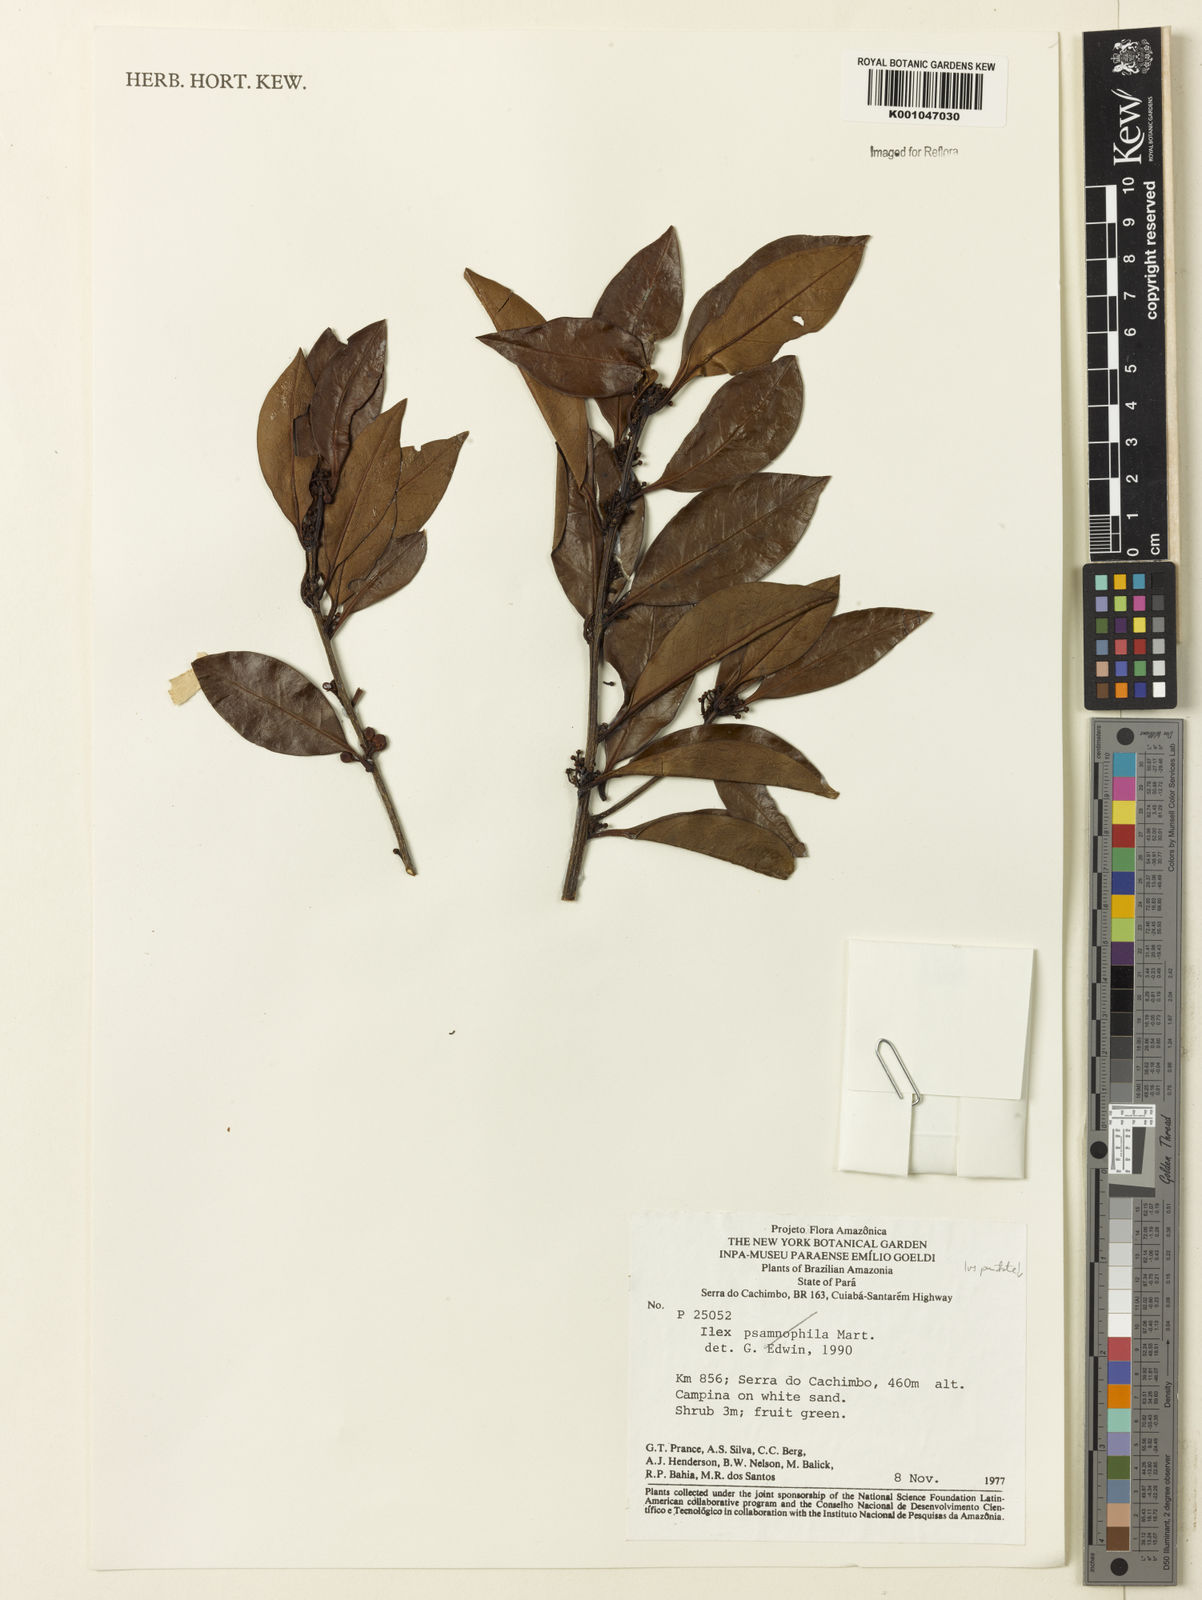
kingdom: Plantae
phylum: Tracheophyta
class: Magnoliopsida
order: Aquifoliales
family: Aquifoliaceae
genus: Ilex
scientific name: Ilex
